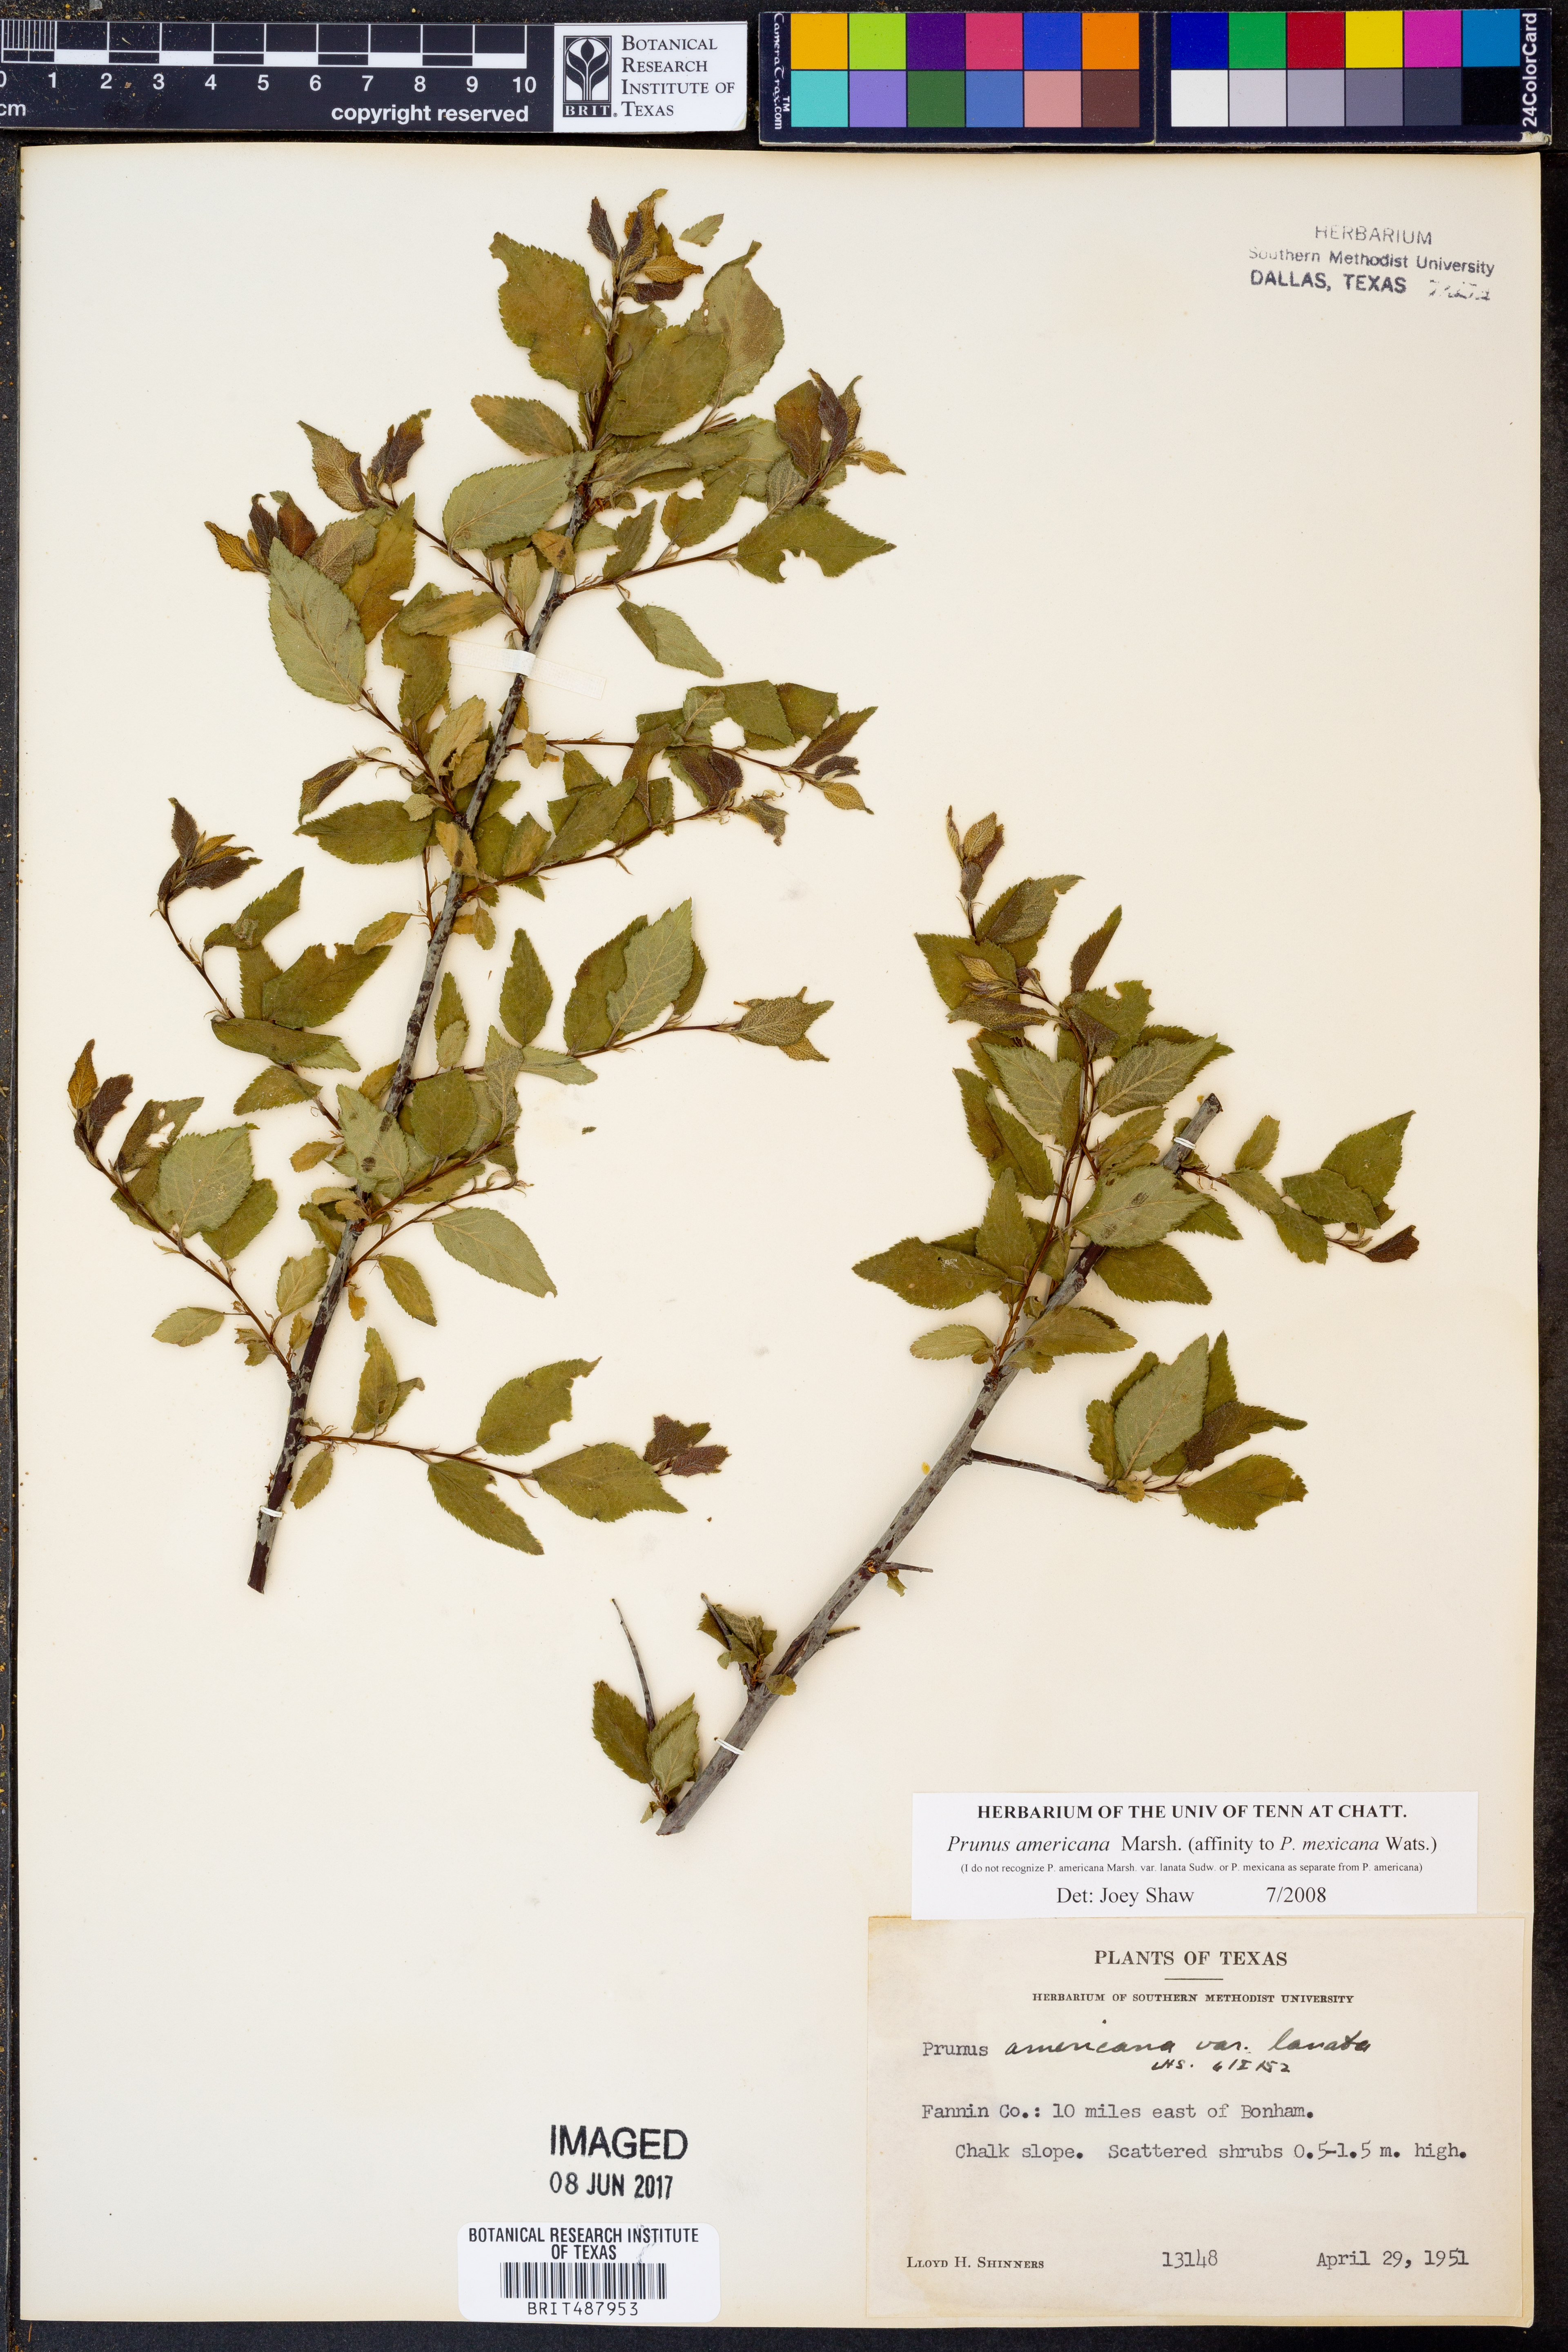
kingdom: Plantae
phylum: Tracheophyta
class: Magnoliopsida
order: Rosales
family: Rosaceae
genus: Prunus
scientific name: Prunus americana
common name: American plum
